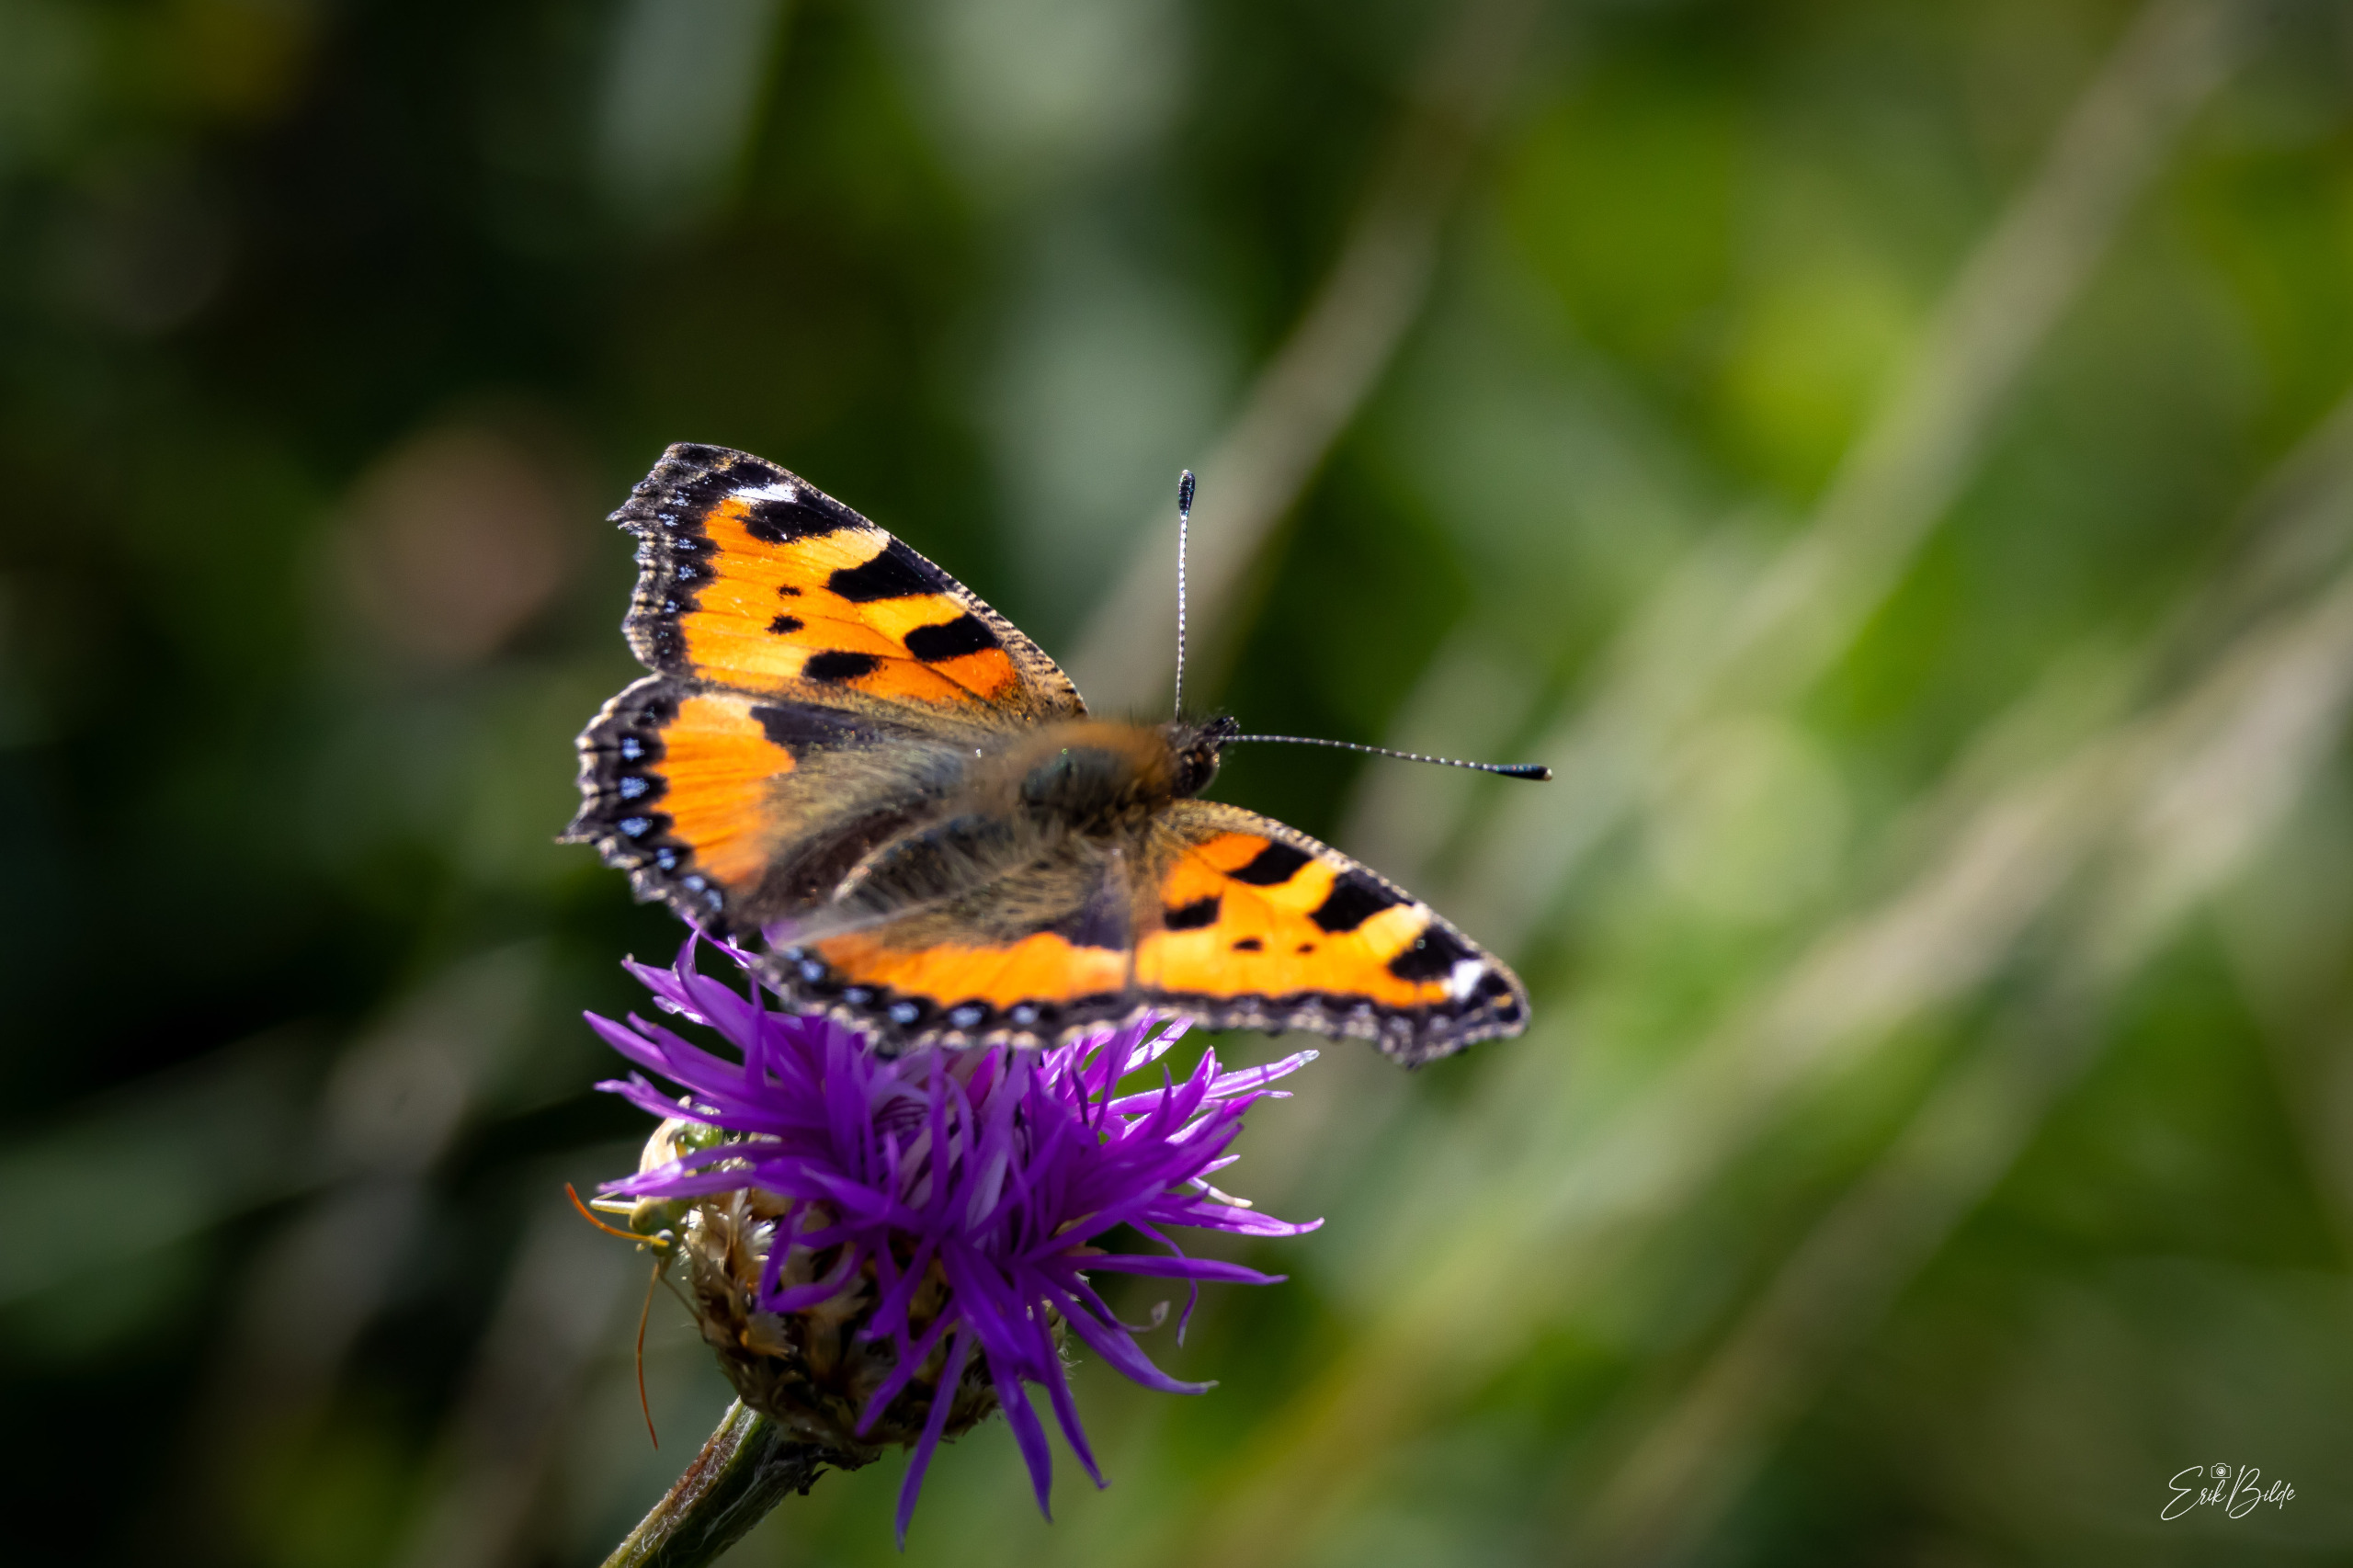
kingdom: Animalia
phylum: Arthropoda
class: Insecta
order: Lepidoptera
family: Nymphalidae
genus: Aglais
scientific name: Aglais urticae
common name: Nældens takvinge
